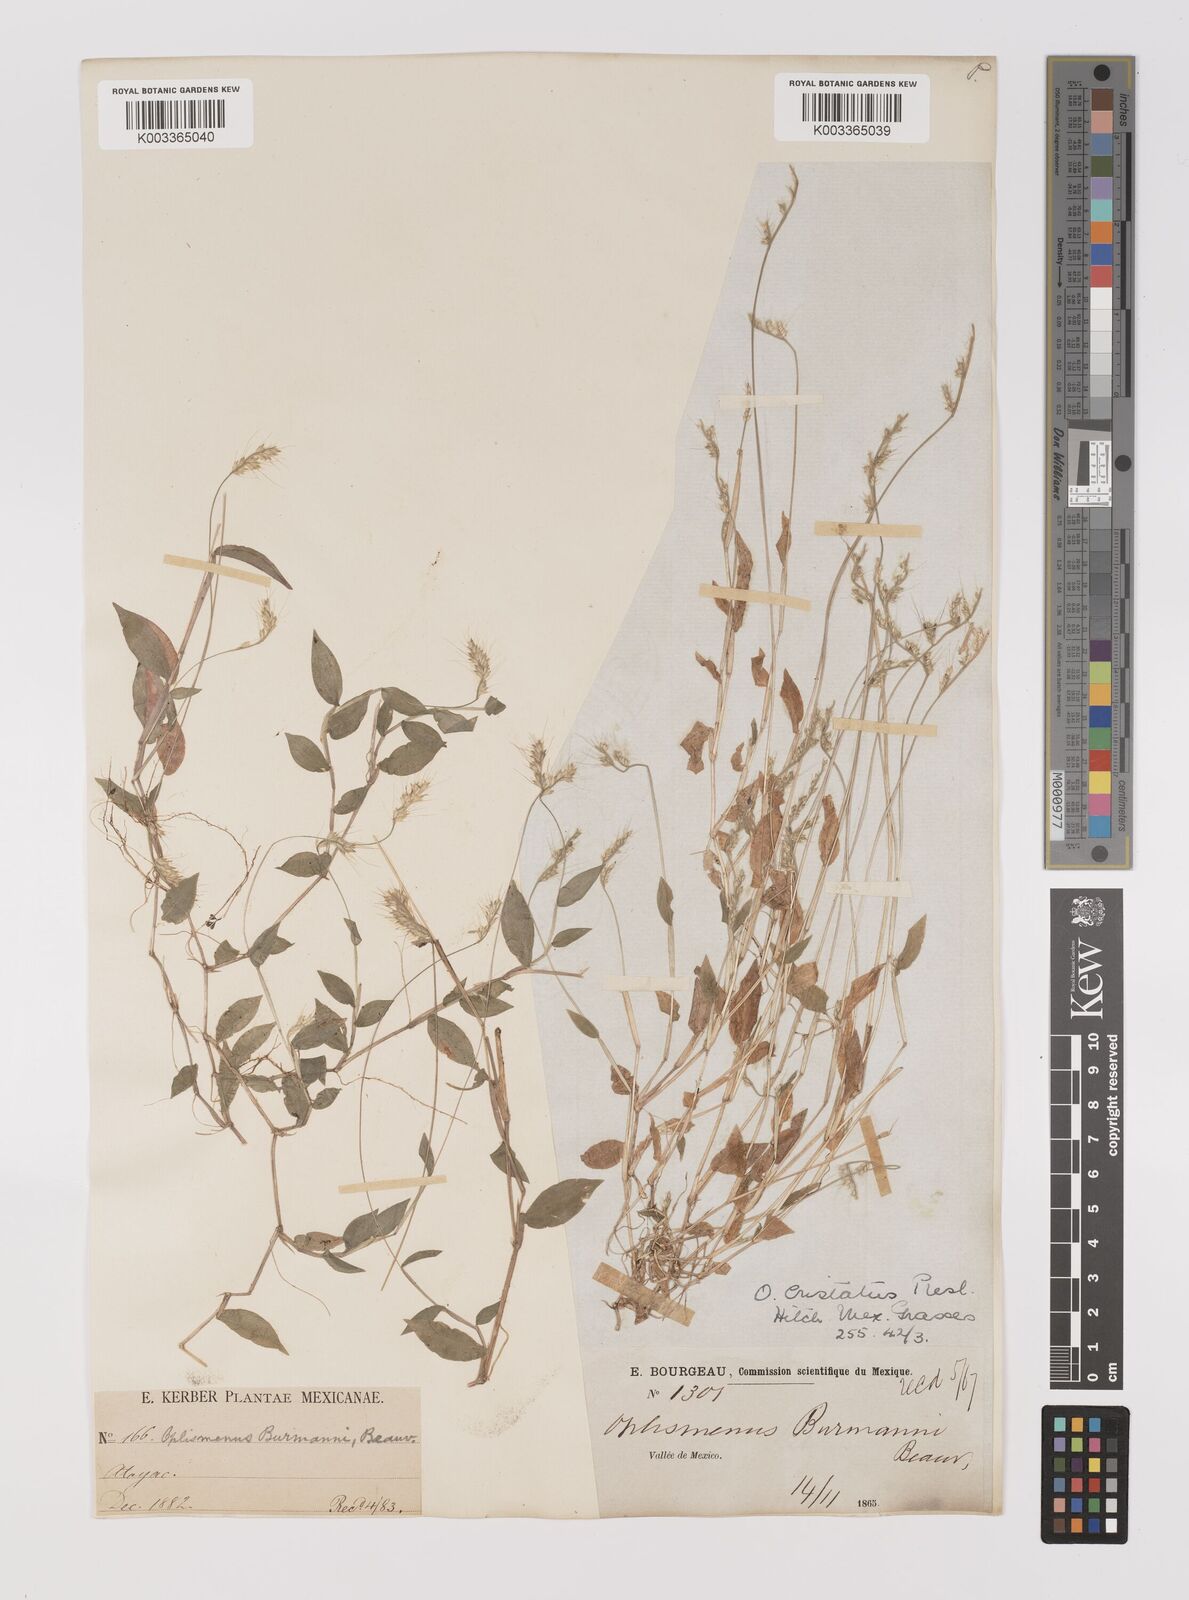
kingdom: Plantae
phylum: Tracheophyta
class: Liliopsida
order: Poales
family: Poaceae
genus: Oplismenus
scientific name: Oplismenus burmanni
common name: Burmann's basketgrass
